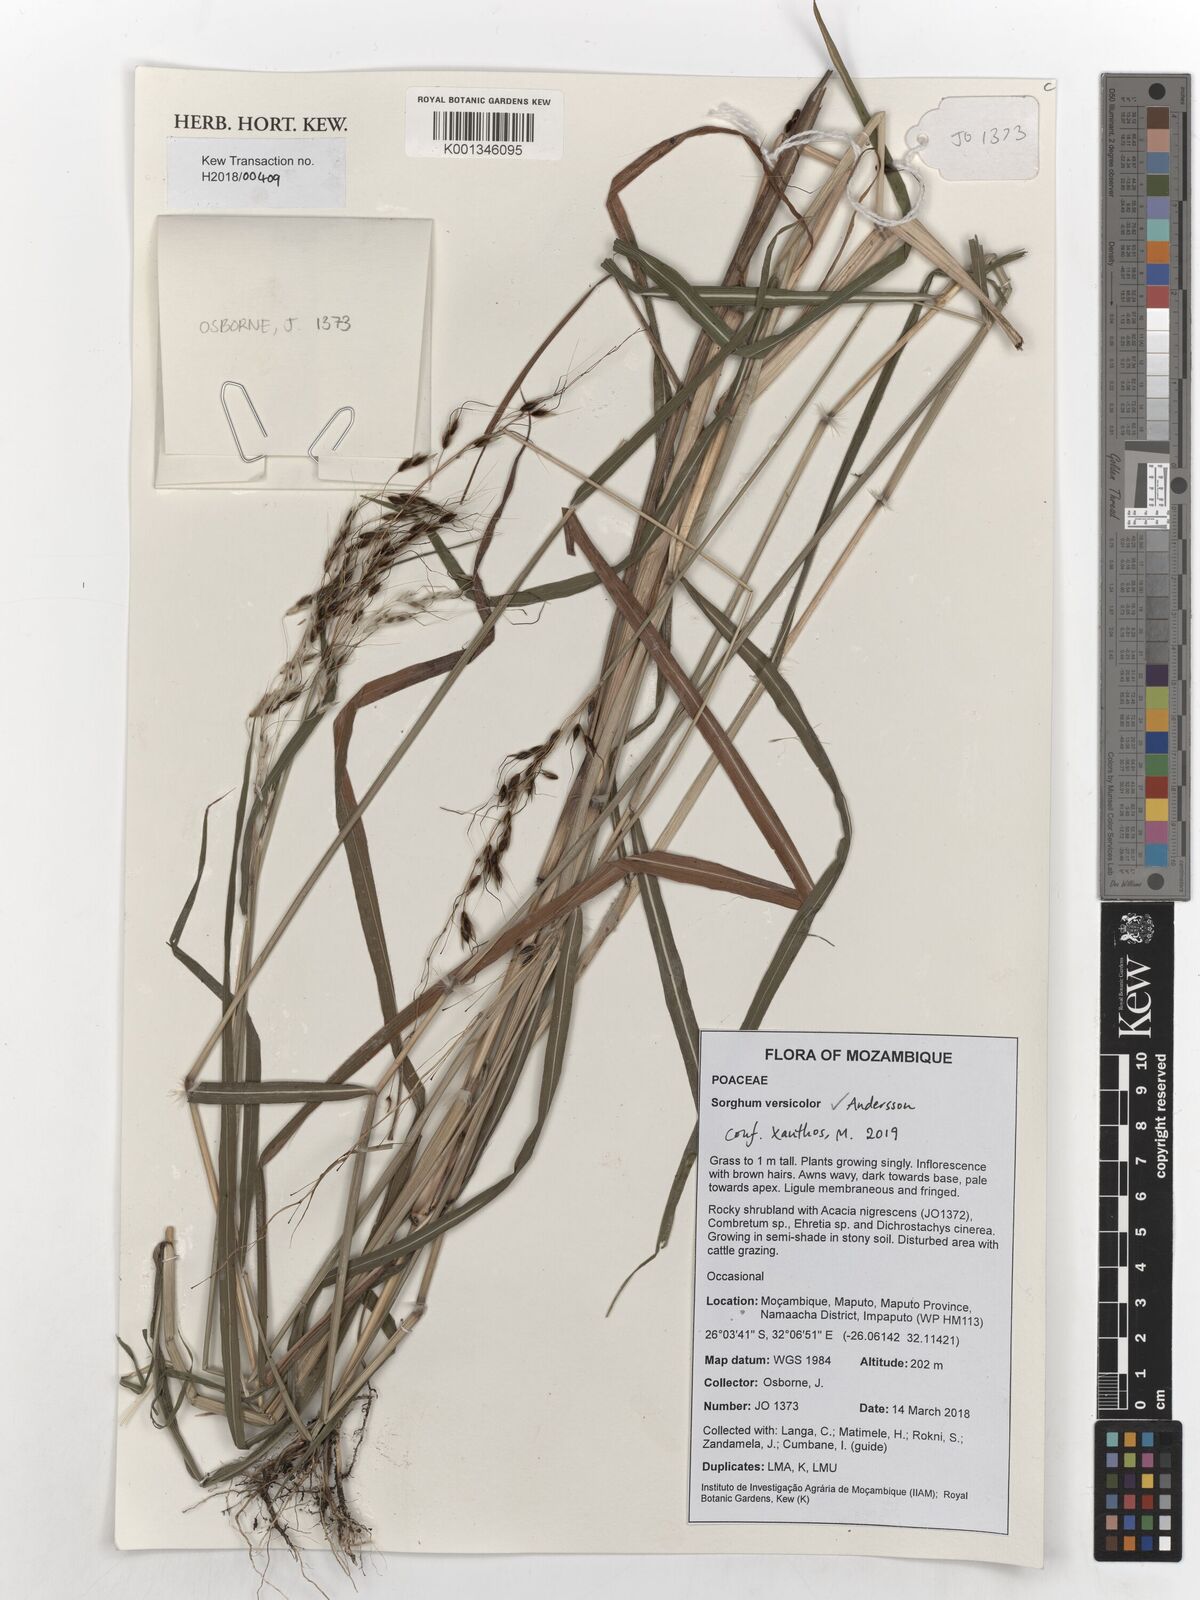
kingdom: Plantae
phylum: Tracheophyta
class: Liliopsida
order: Poales
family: Poaceae
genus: Sarga
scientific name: Sarga versicolor
